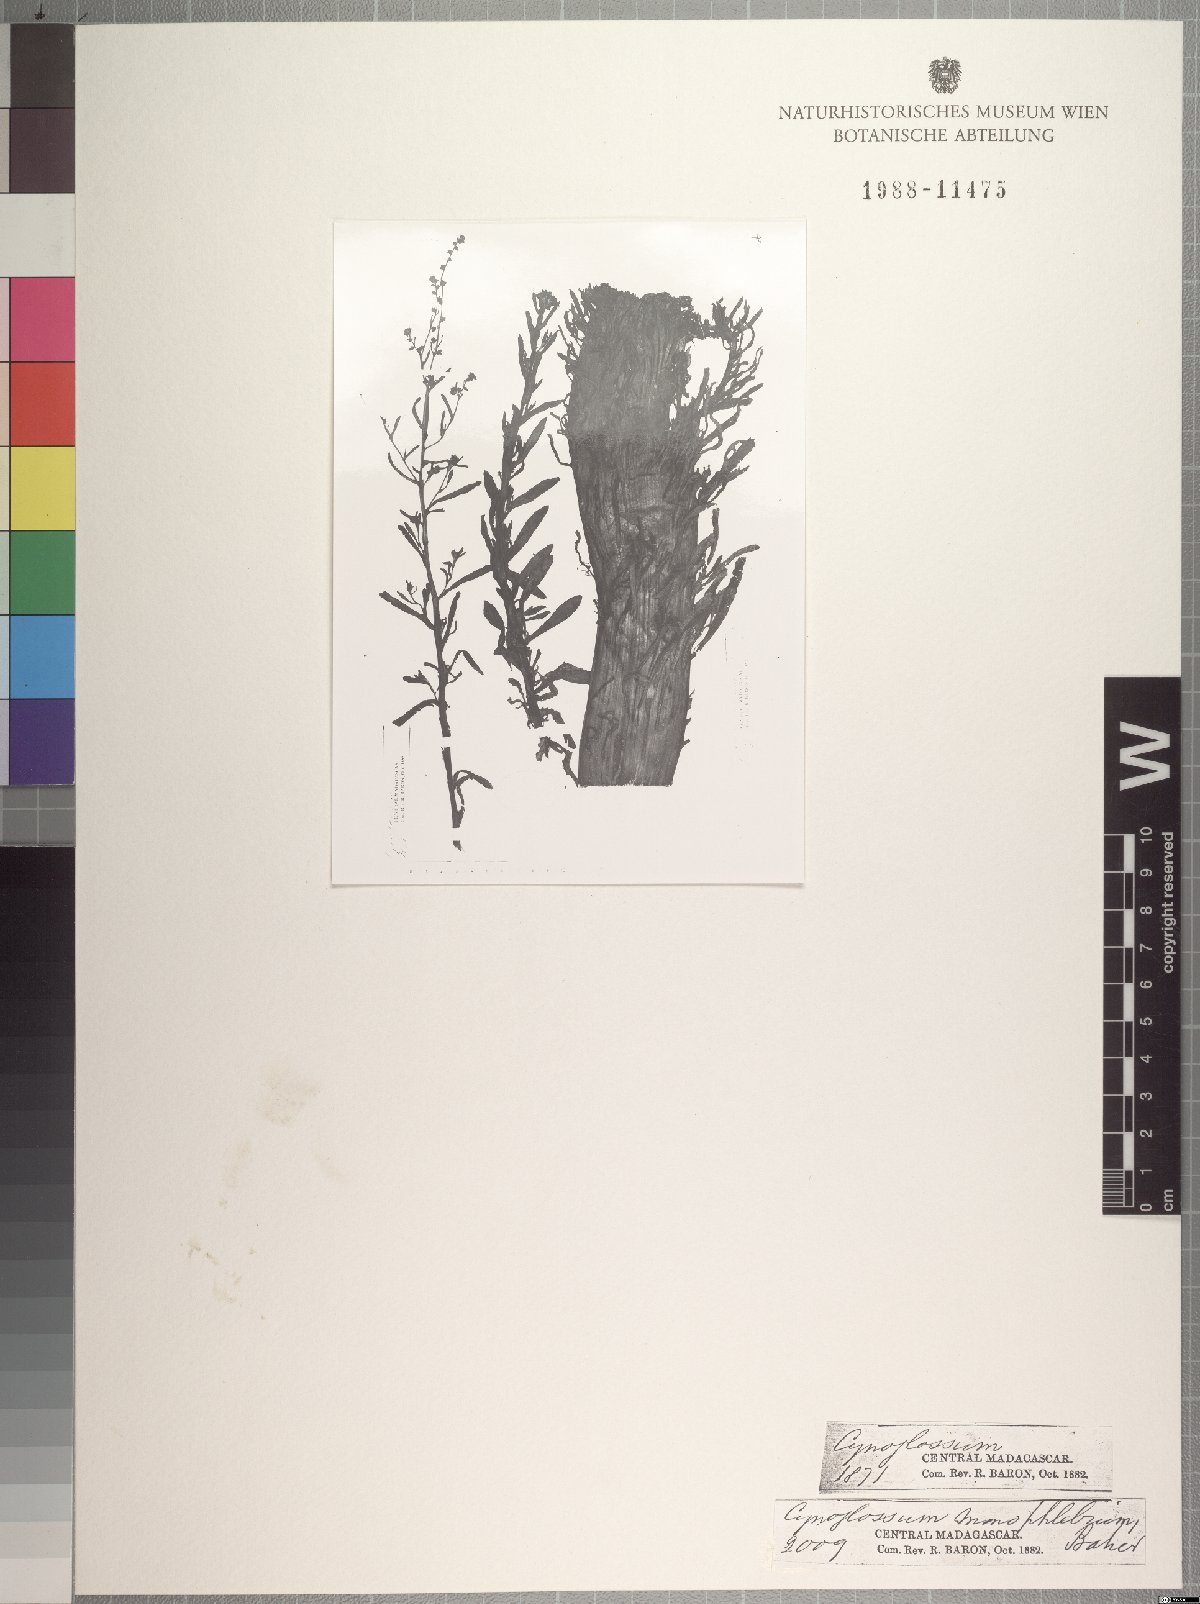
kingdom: Plantae
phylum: Tracheophyta
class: Magnoliopsida
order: Boraginales
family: Boraginaceae
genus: Cynoglossum
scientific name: Cynoglossum monophlebium
